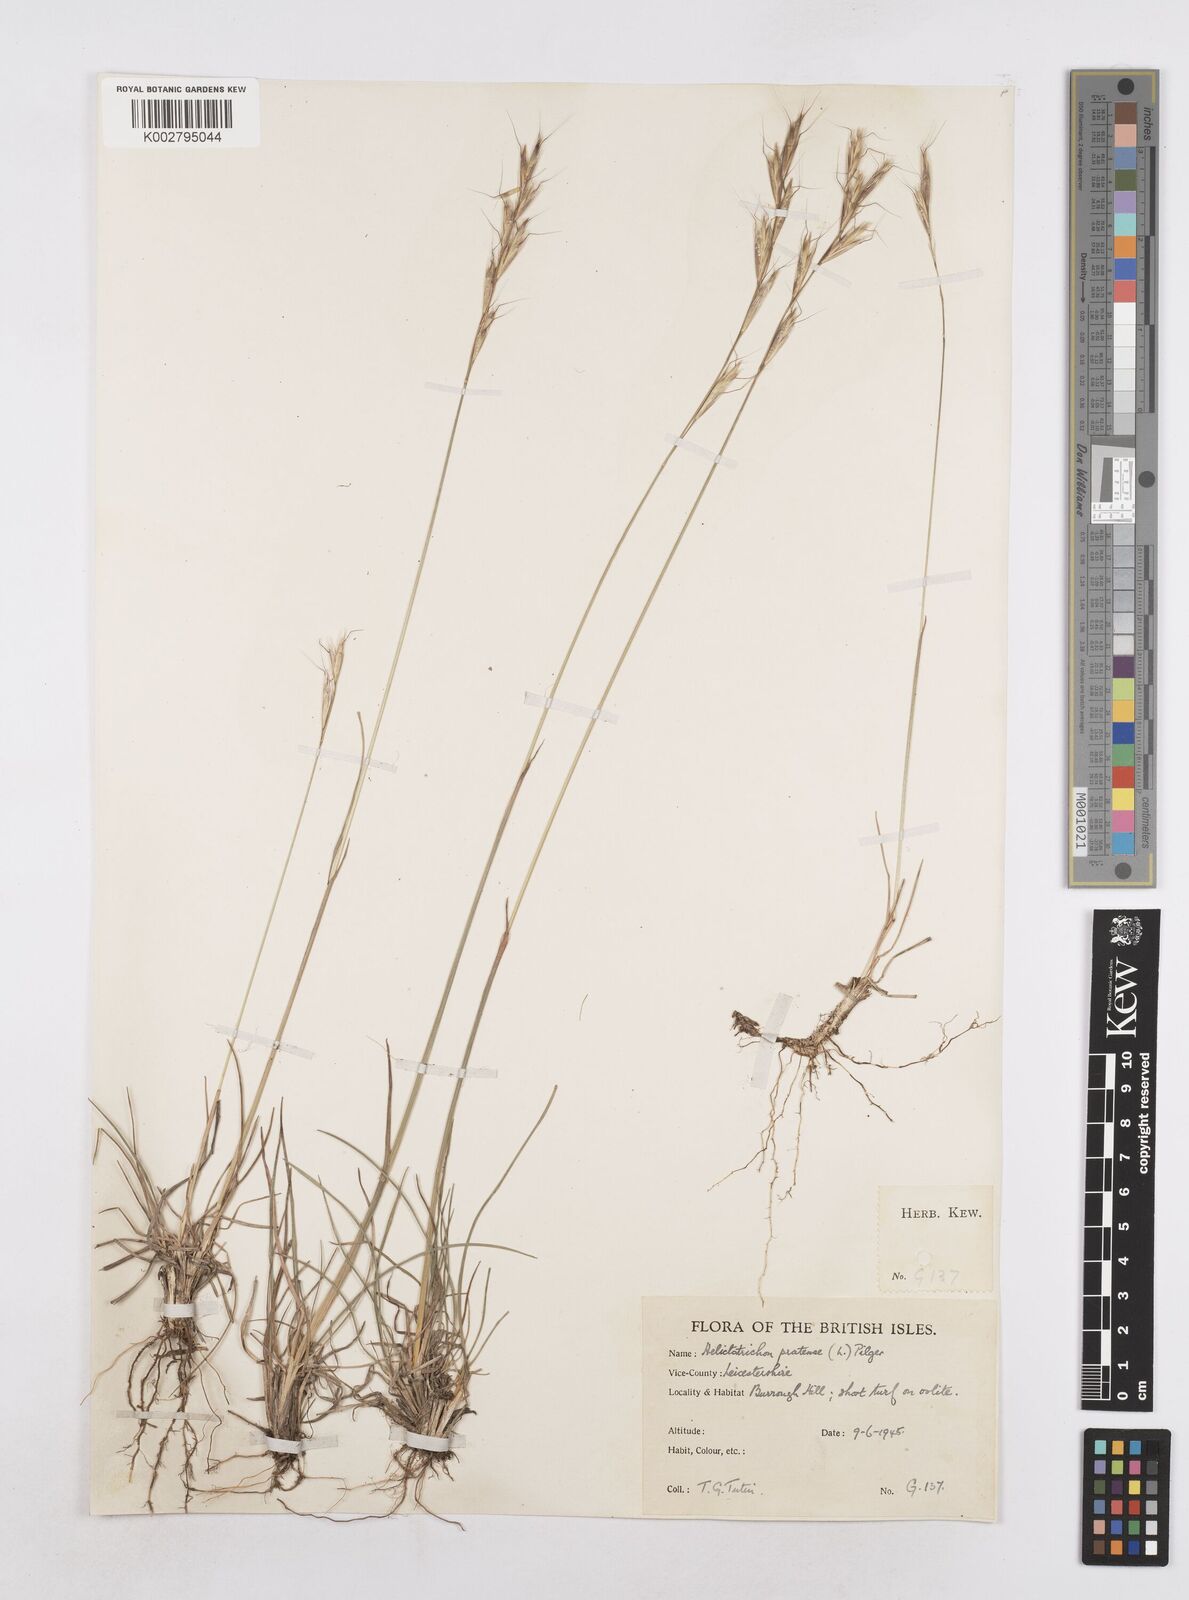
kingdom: Plantae
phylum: Tracheophyta
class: Liliopsida
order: Poales
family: Poaceae
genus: Helictochloa
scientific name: Helictochloa pratensis
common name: Meadow oat grass
